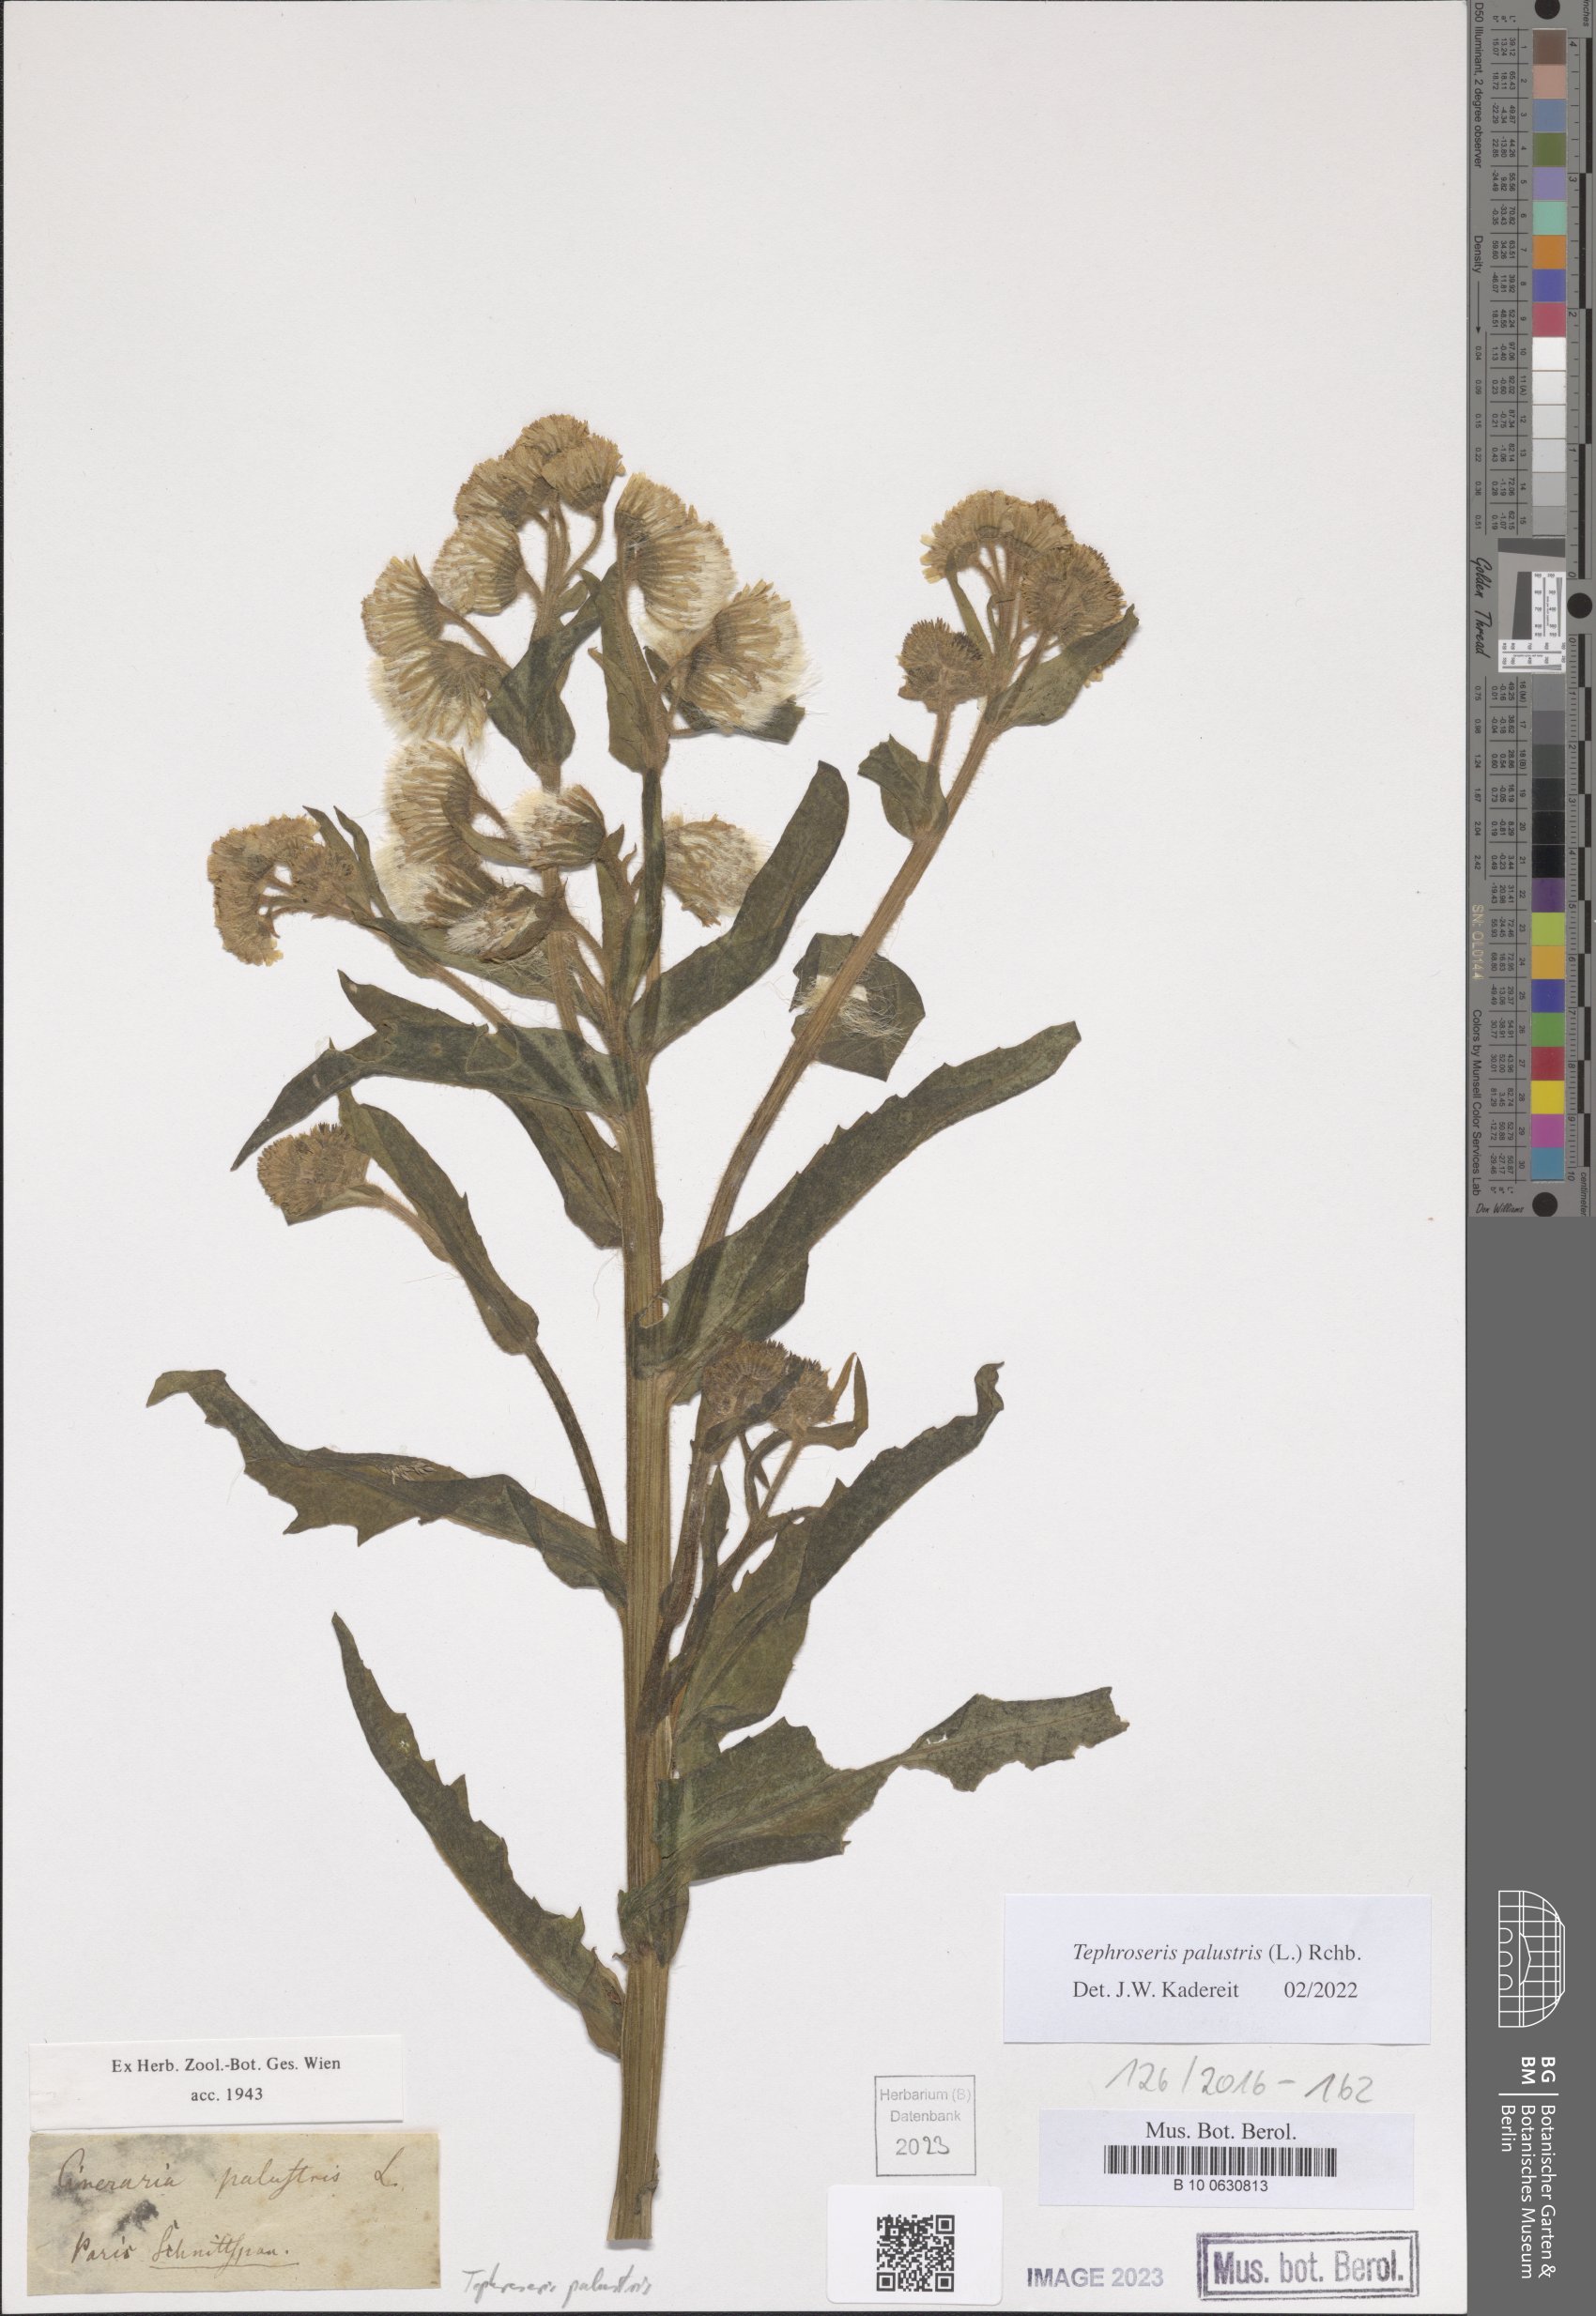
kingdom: Plantae
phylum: Tracheophyta
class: Magnoliopsida
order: Asterales
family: Asteraceae
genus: Tephroseris
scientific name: Tephroseris palustris
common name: Marsh fleawort
